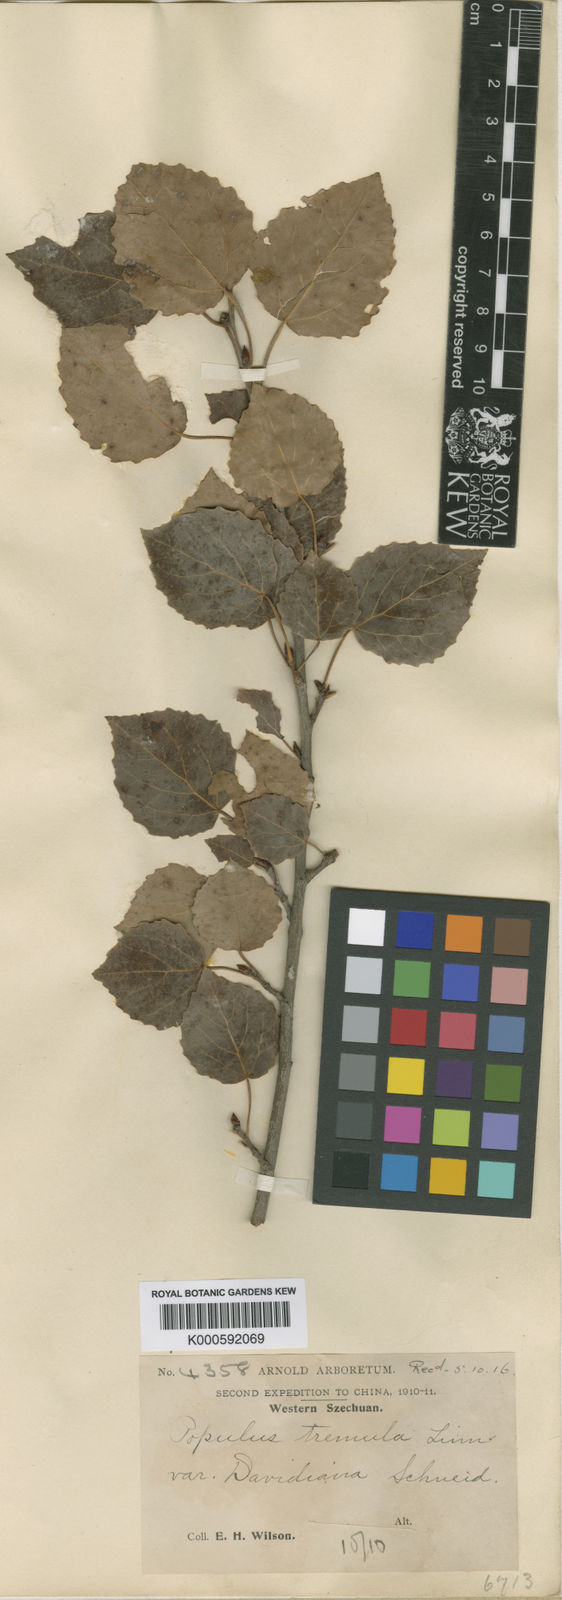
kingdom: Plantae
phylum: Tracheophyta
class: Magnoliopsida
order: Malpighiales
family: Salicaceae
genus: Populus
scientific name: Populus tremula
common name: European aspen
